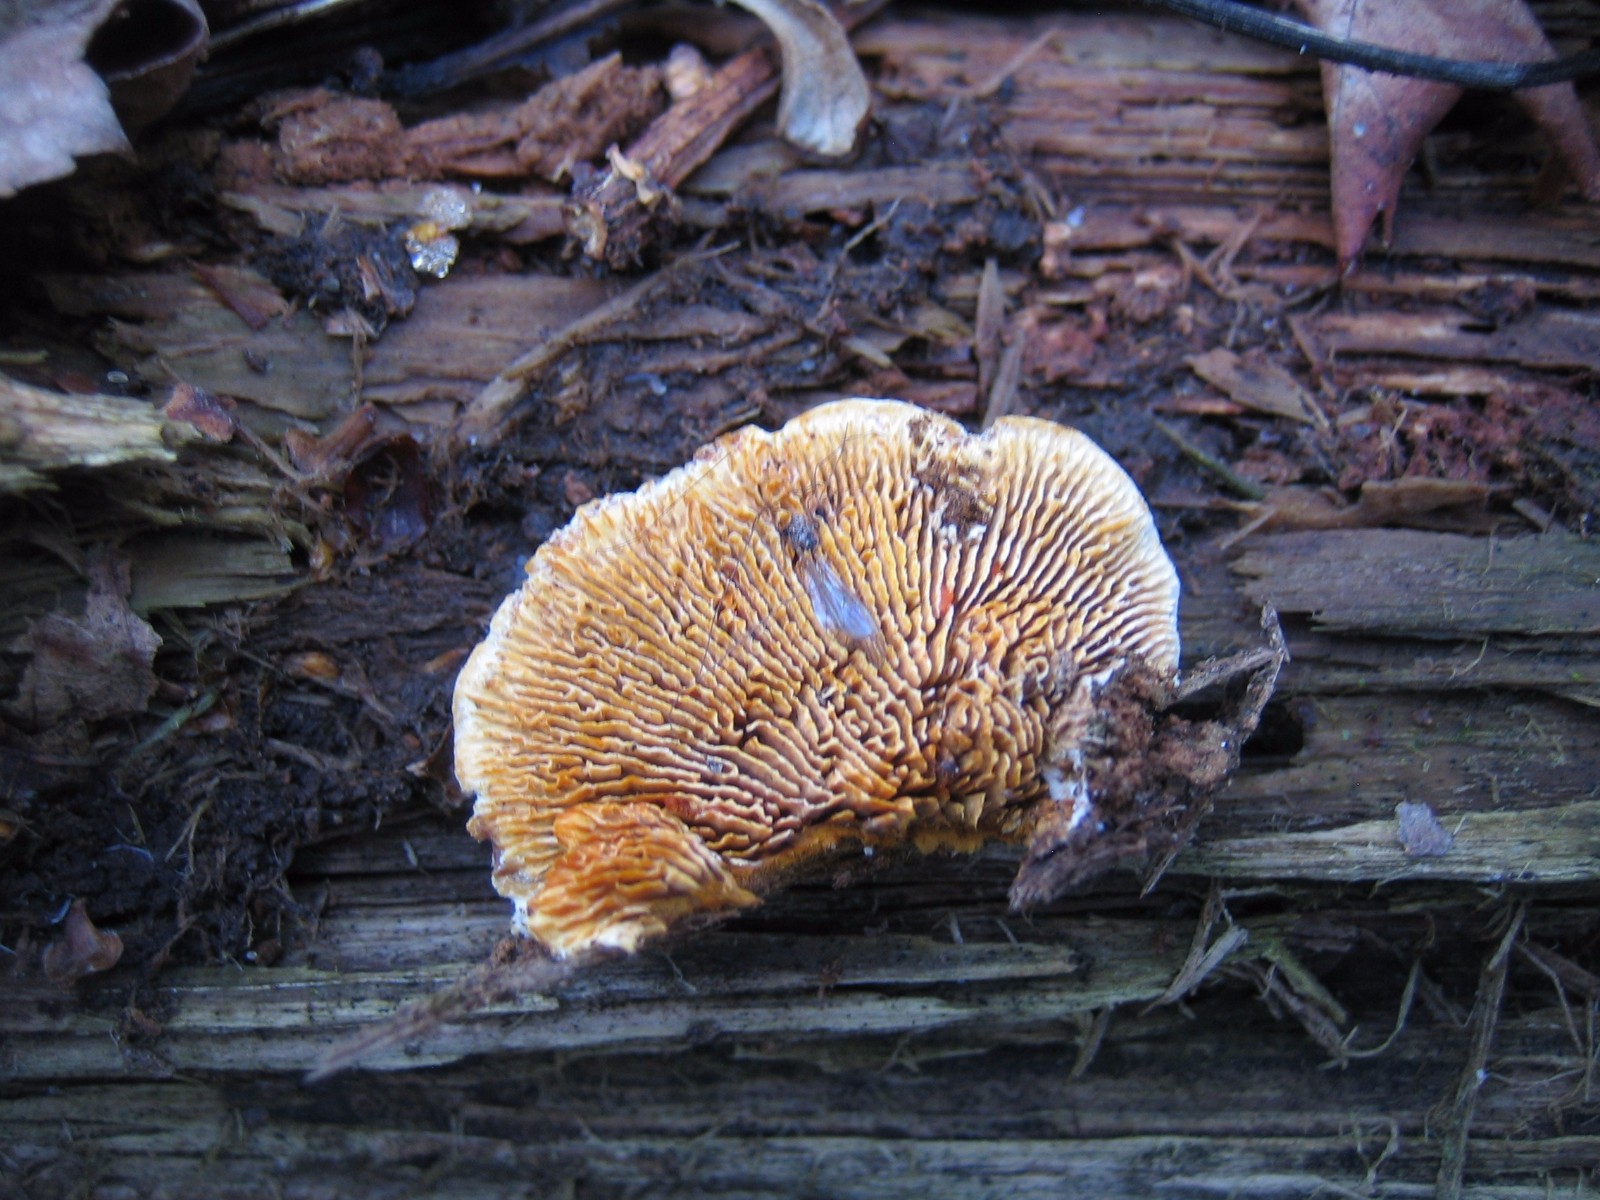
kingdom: Fungi
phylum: Basidiomycota
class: Agaricomycetes
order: Gloeophyllales
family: Gloeophyllaceae
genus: Gloeophyllum
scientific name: Gloeophyllum sepiarium
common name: fyrre-korkhat
